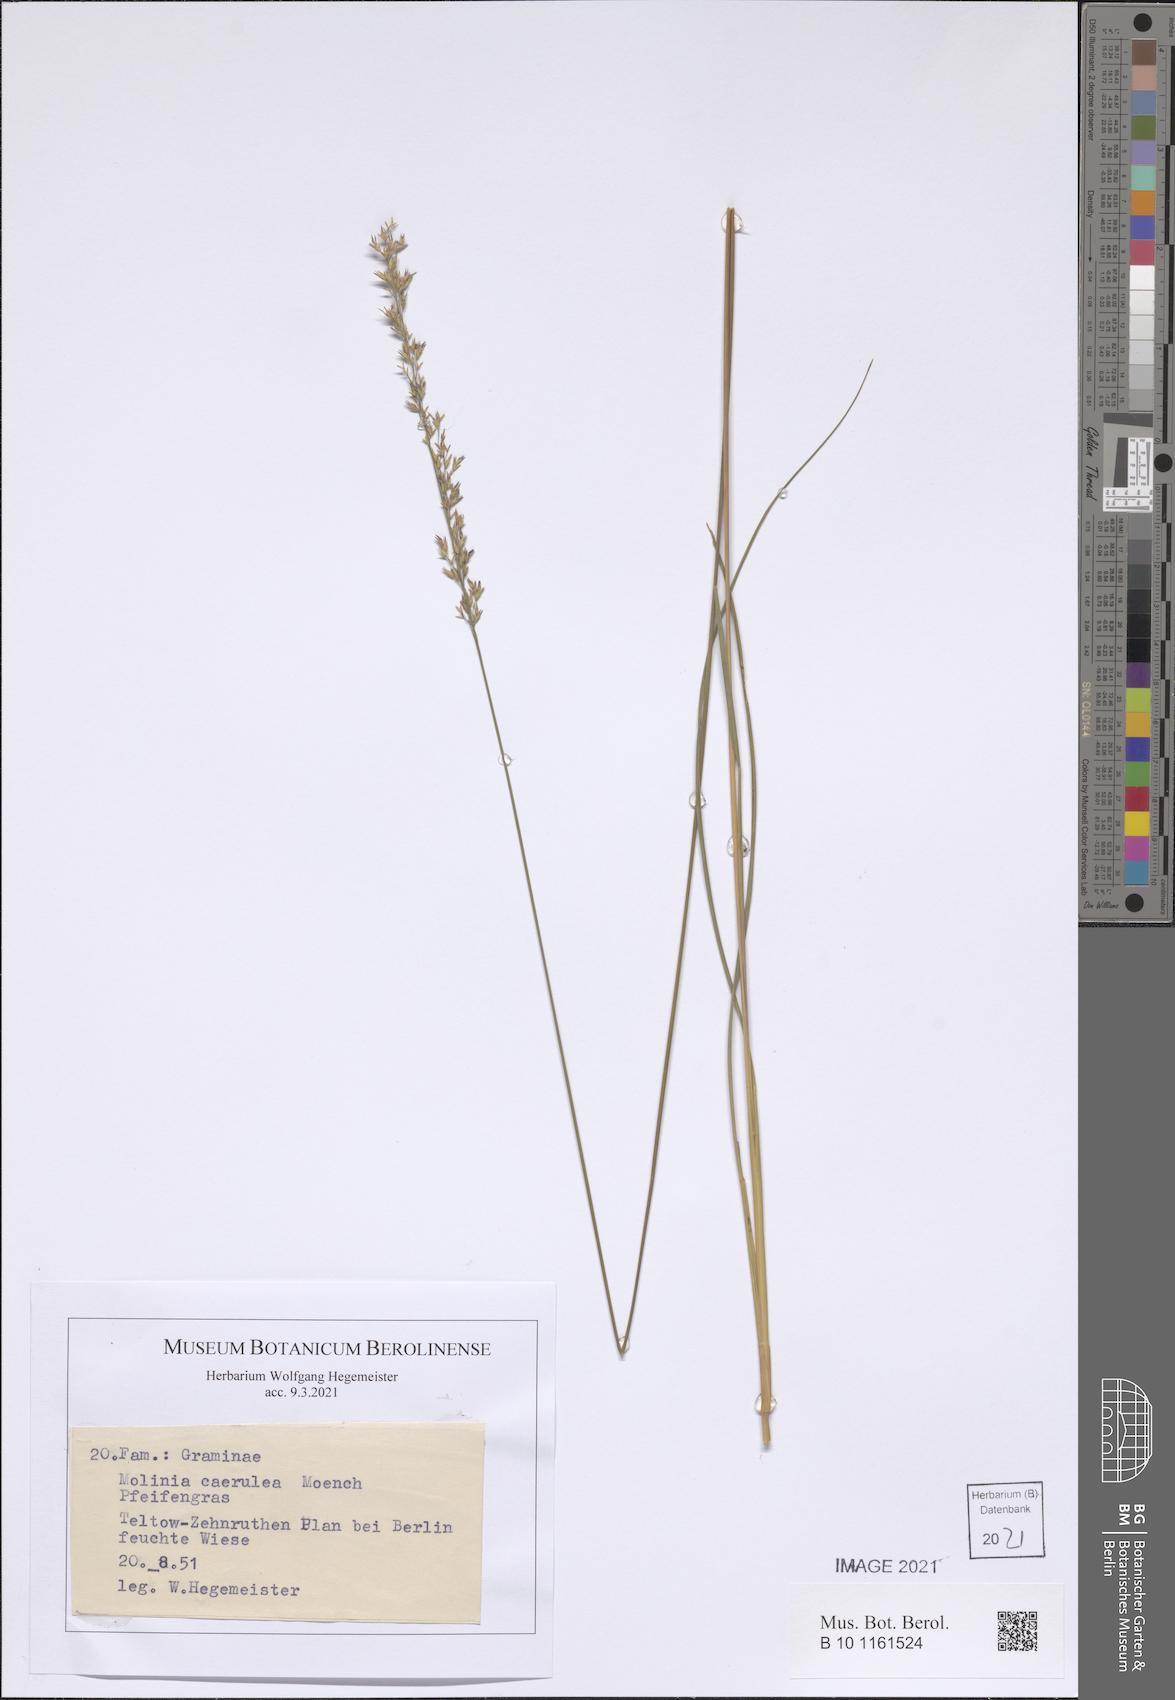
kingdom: Plantae
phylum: Tracheophyta
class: Liliopsida
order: Poales
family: Poaceae
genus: Molinia
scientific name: Molinia caerulea
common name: Purple moor-grass
